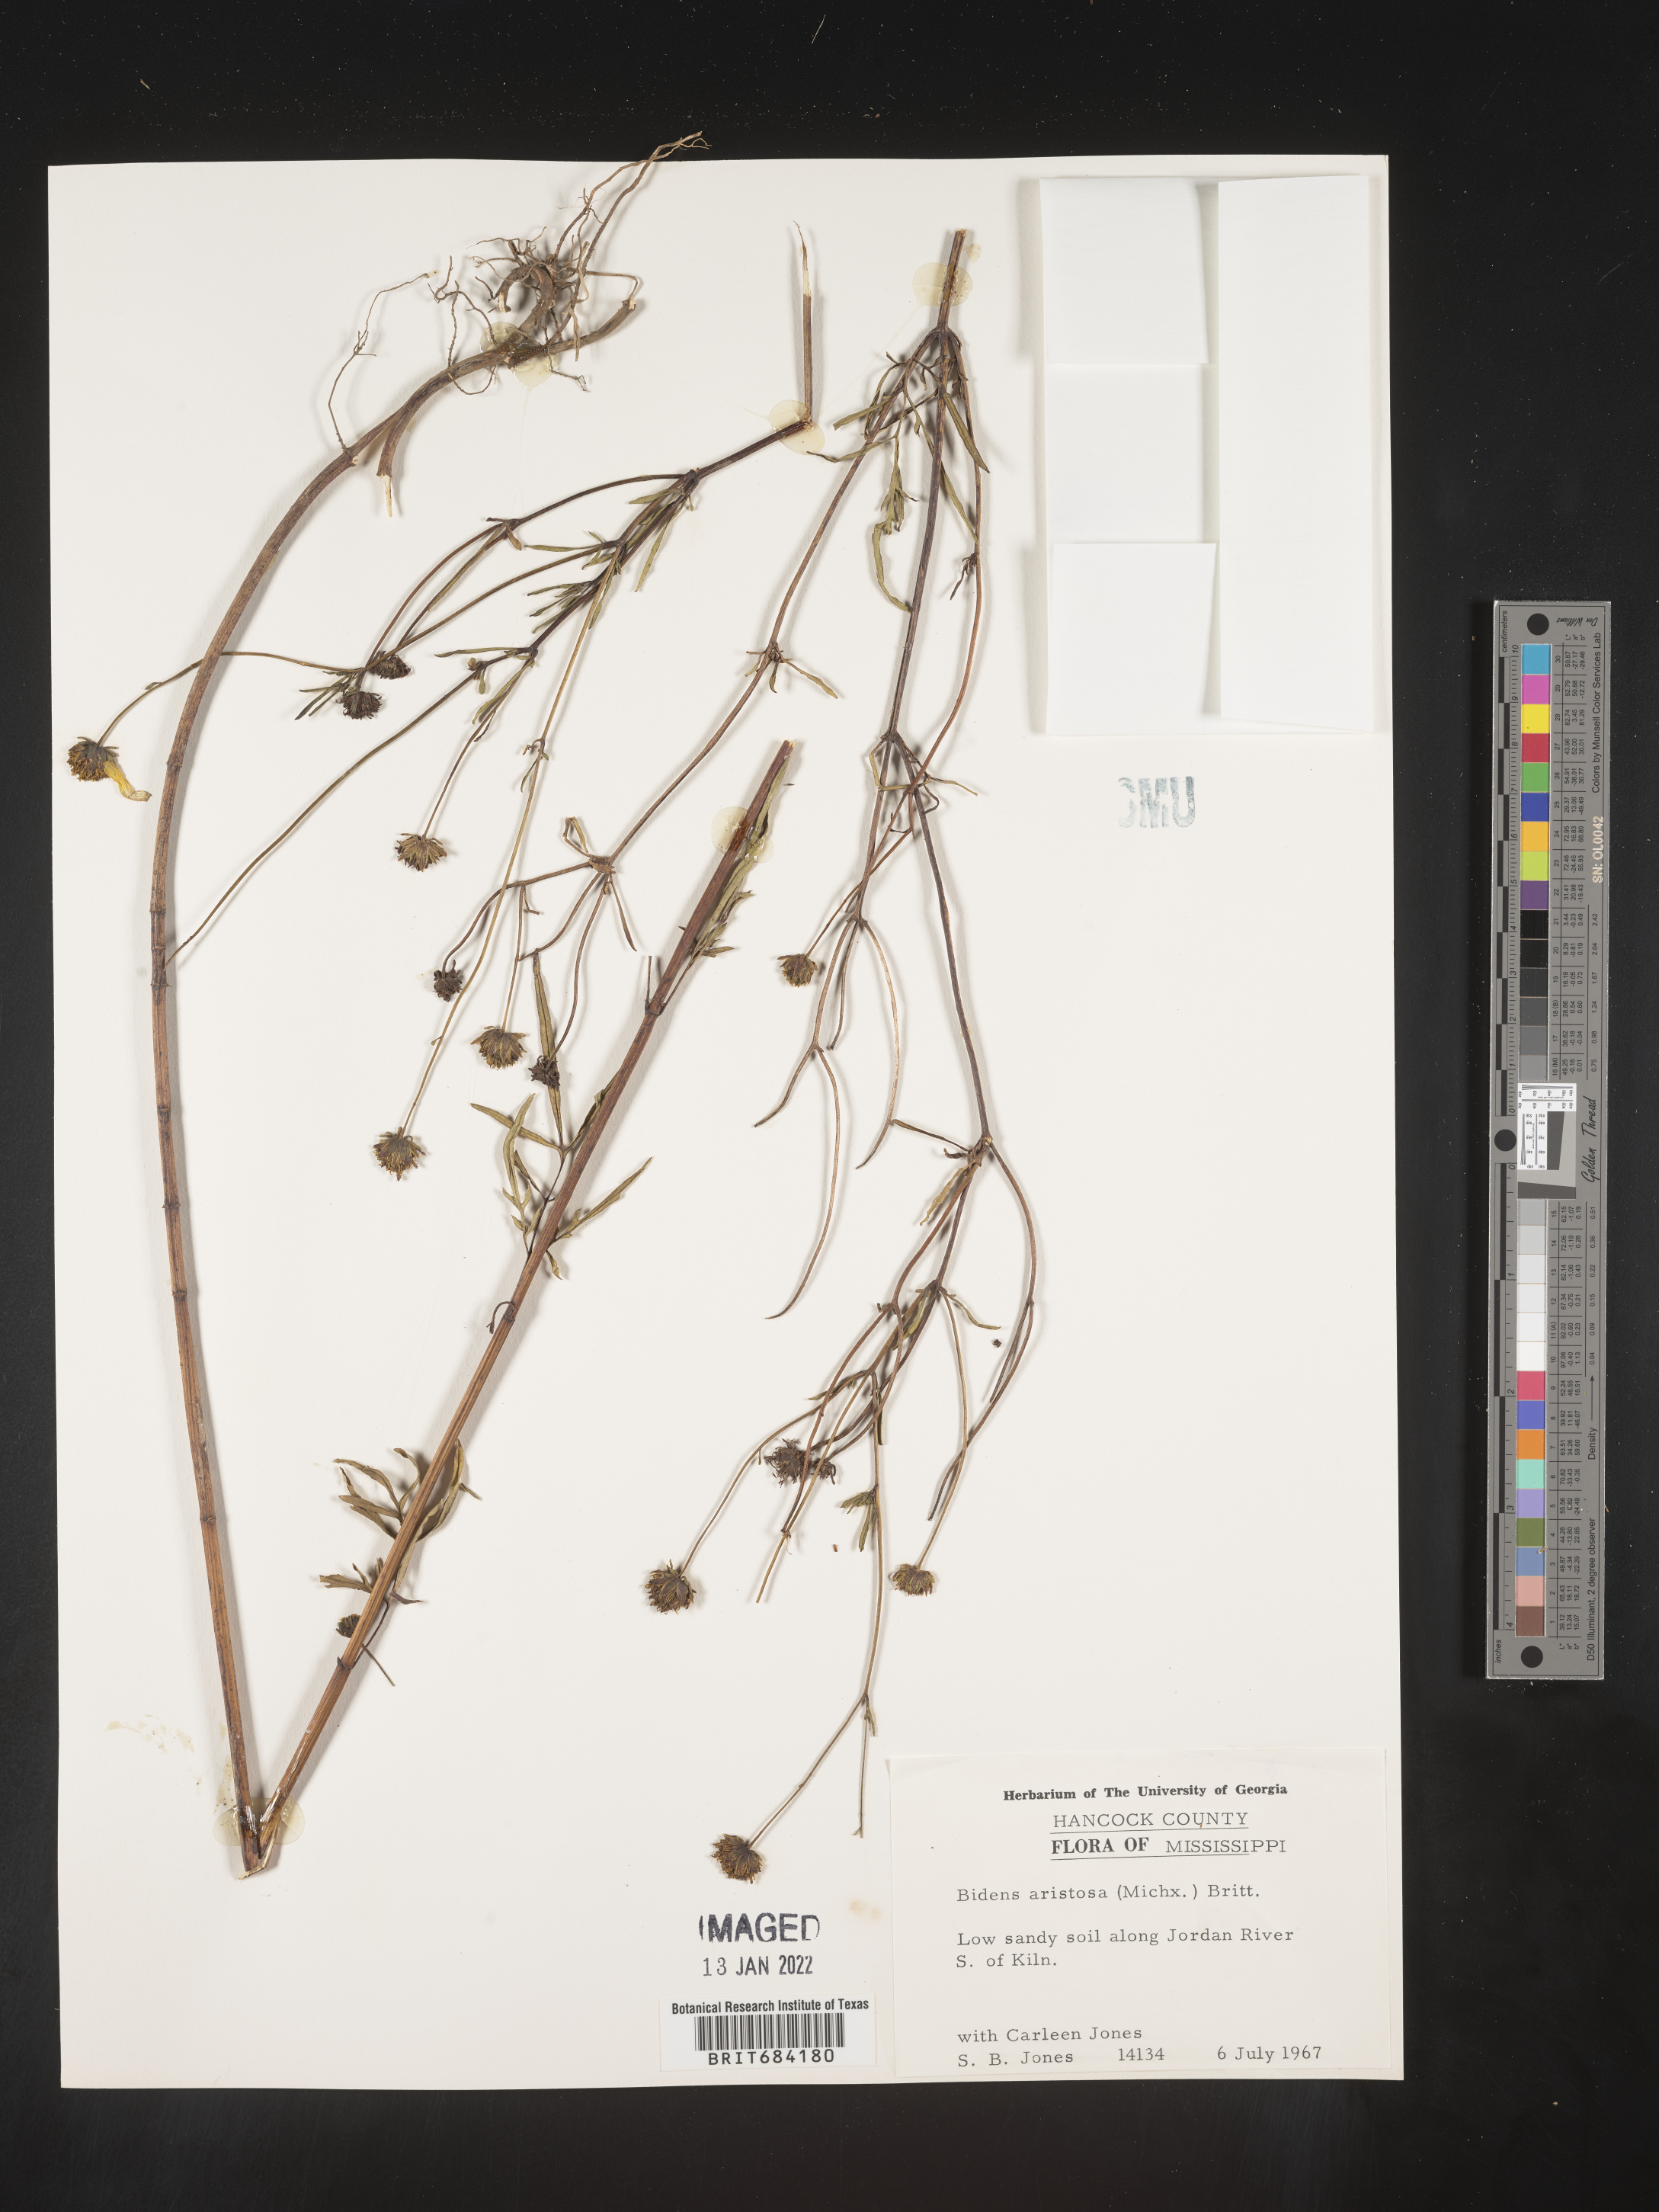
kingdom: Plantae
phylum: Tracheophyta
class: Magnoliopsida
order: Asterales
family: Asteraceae
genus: Bidens
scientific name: Bidens aristosa
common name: Western tickseed
